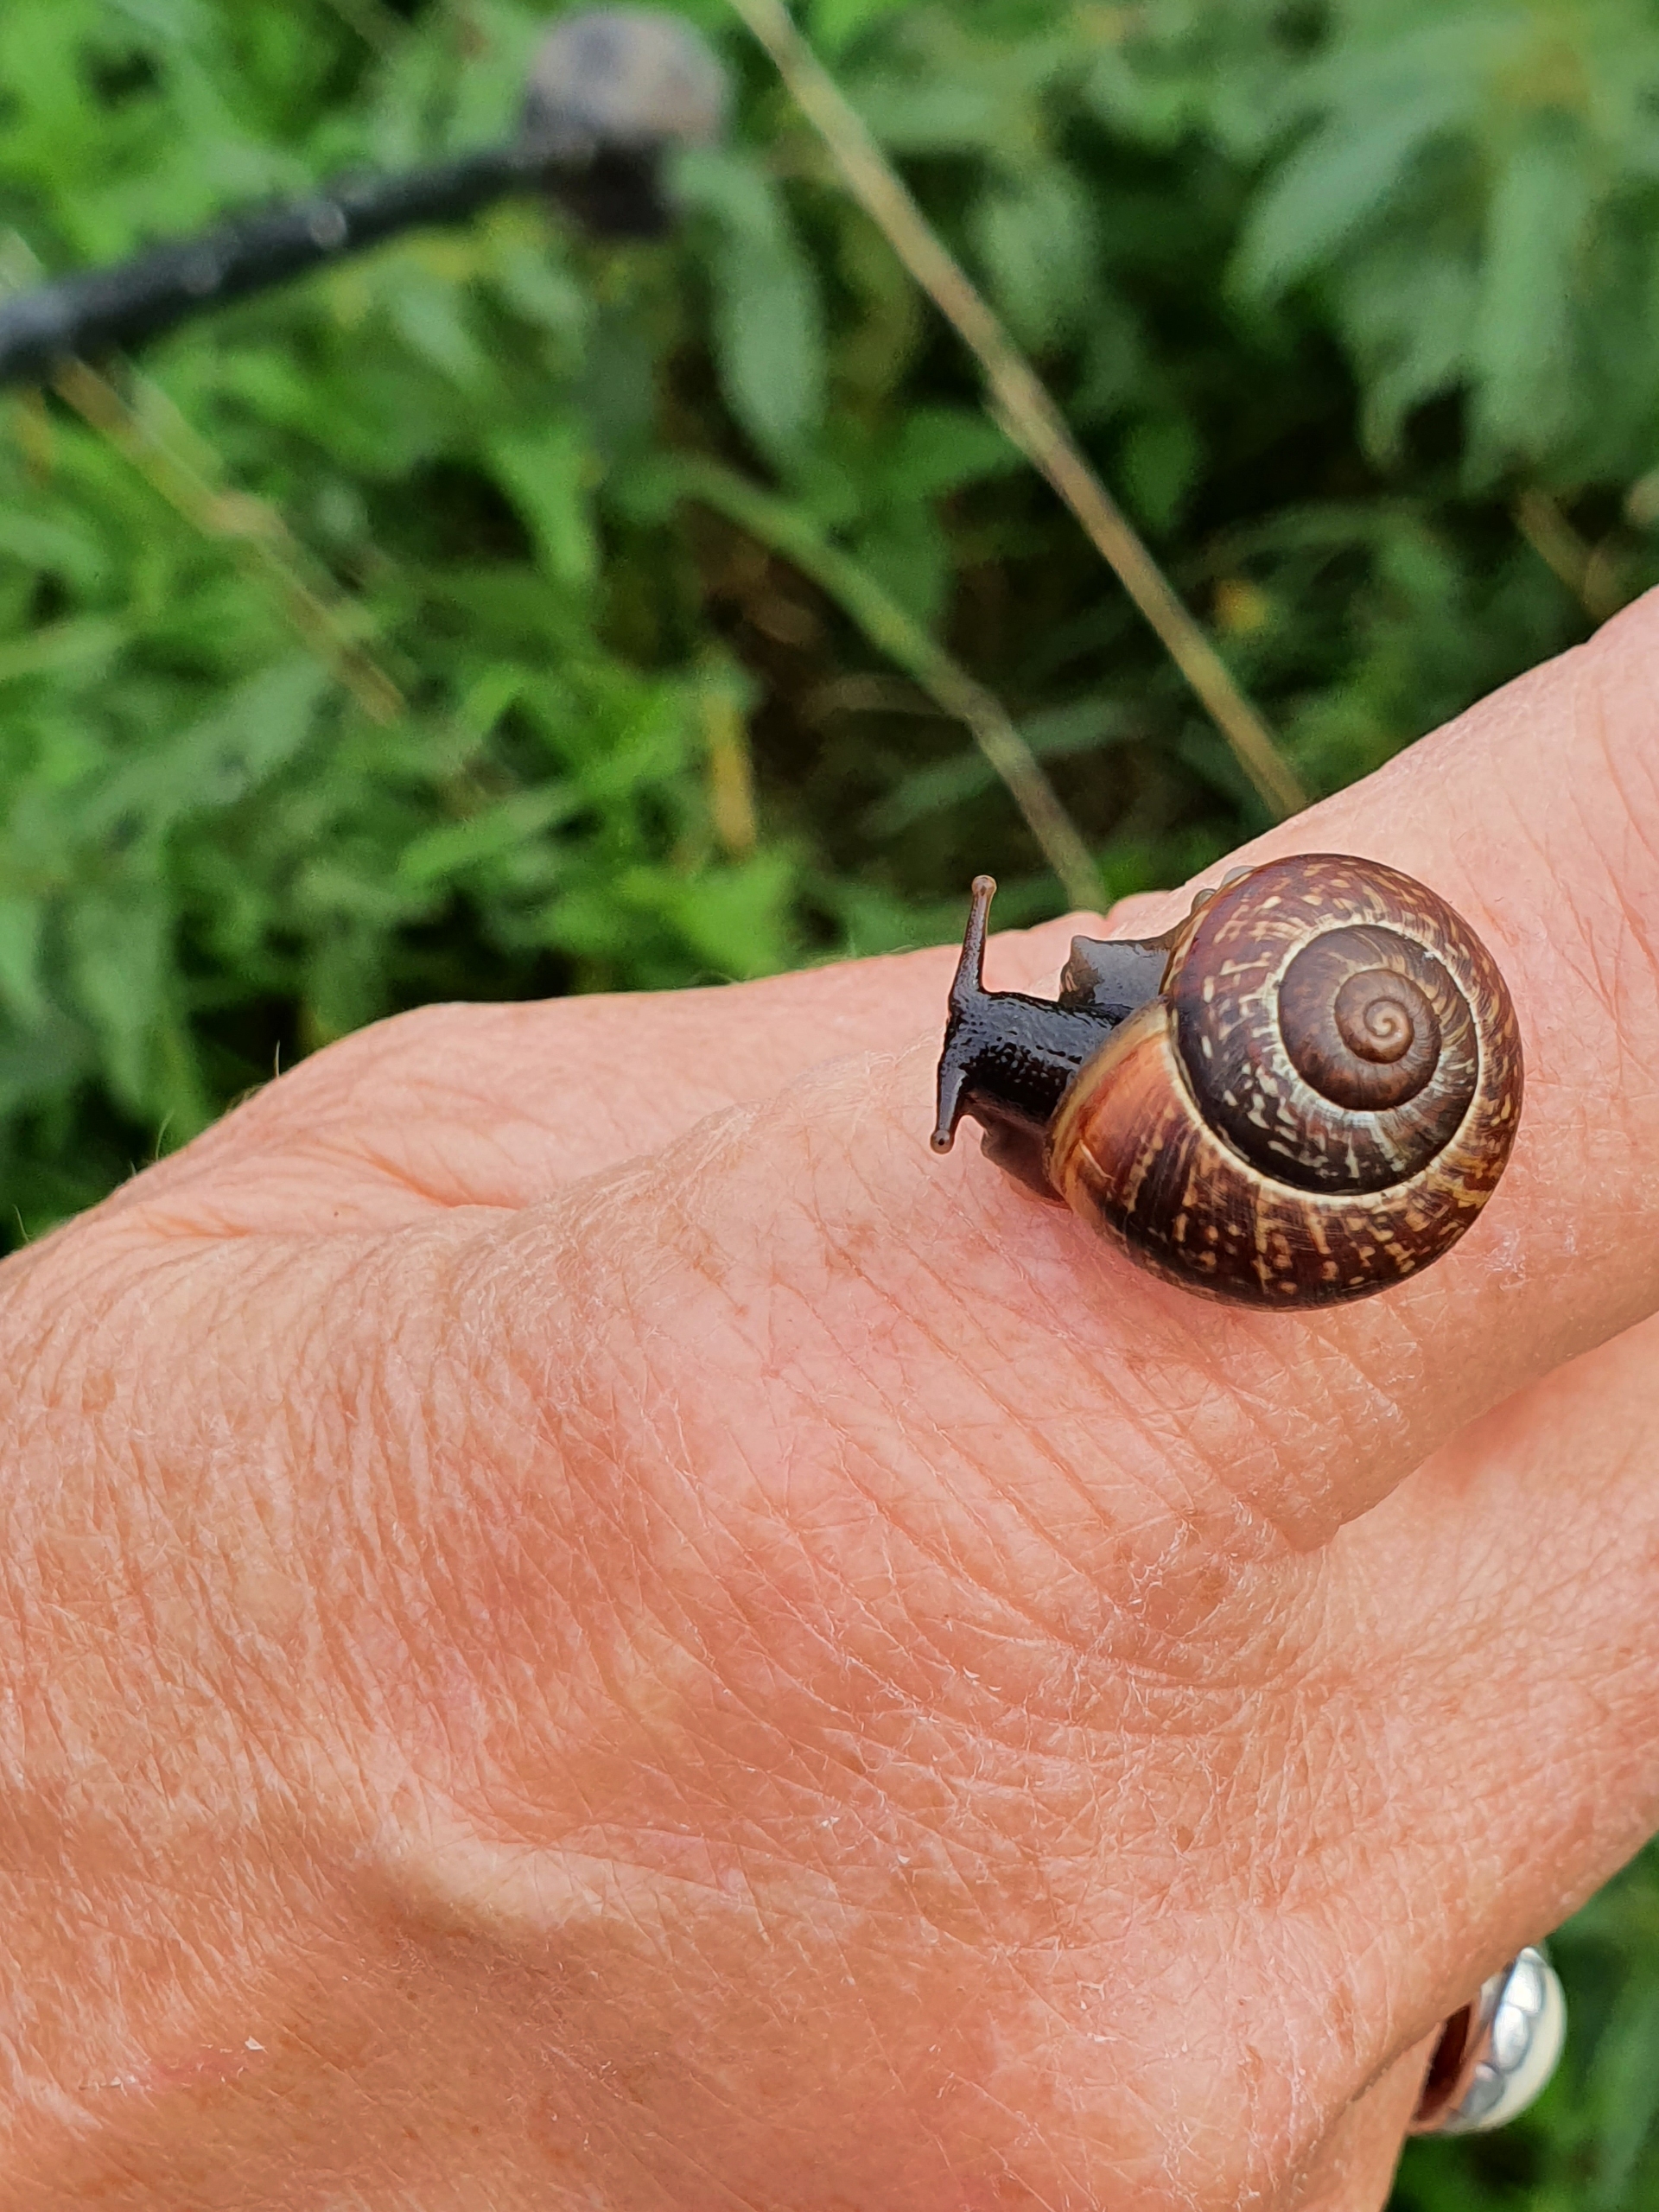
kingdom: Animalia
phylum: Mollusca
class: Gastropoda
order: Stylommatophora
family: Helicidae
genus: Arianta
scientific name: Arianta arbustorum
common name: Kratsnegl
